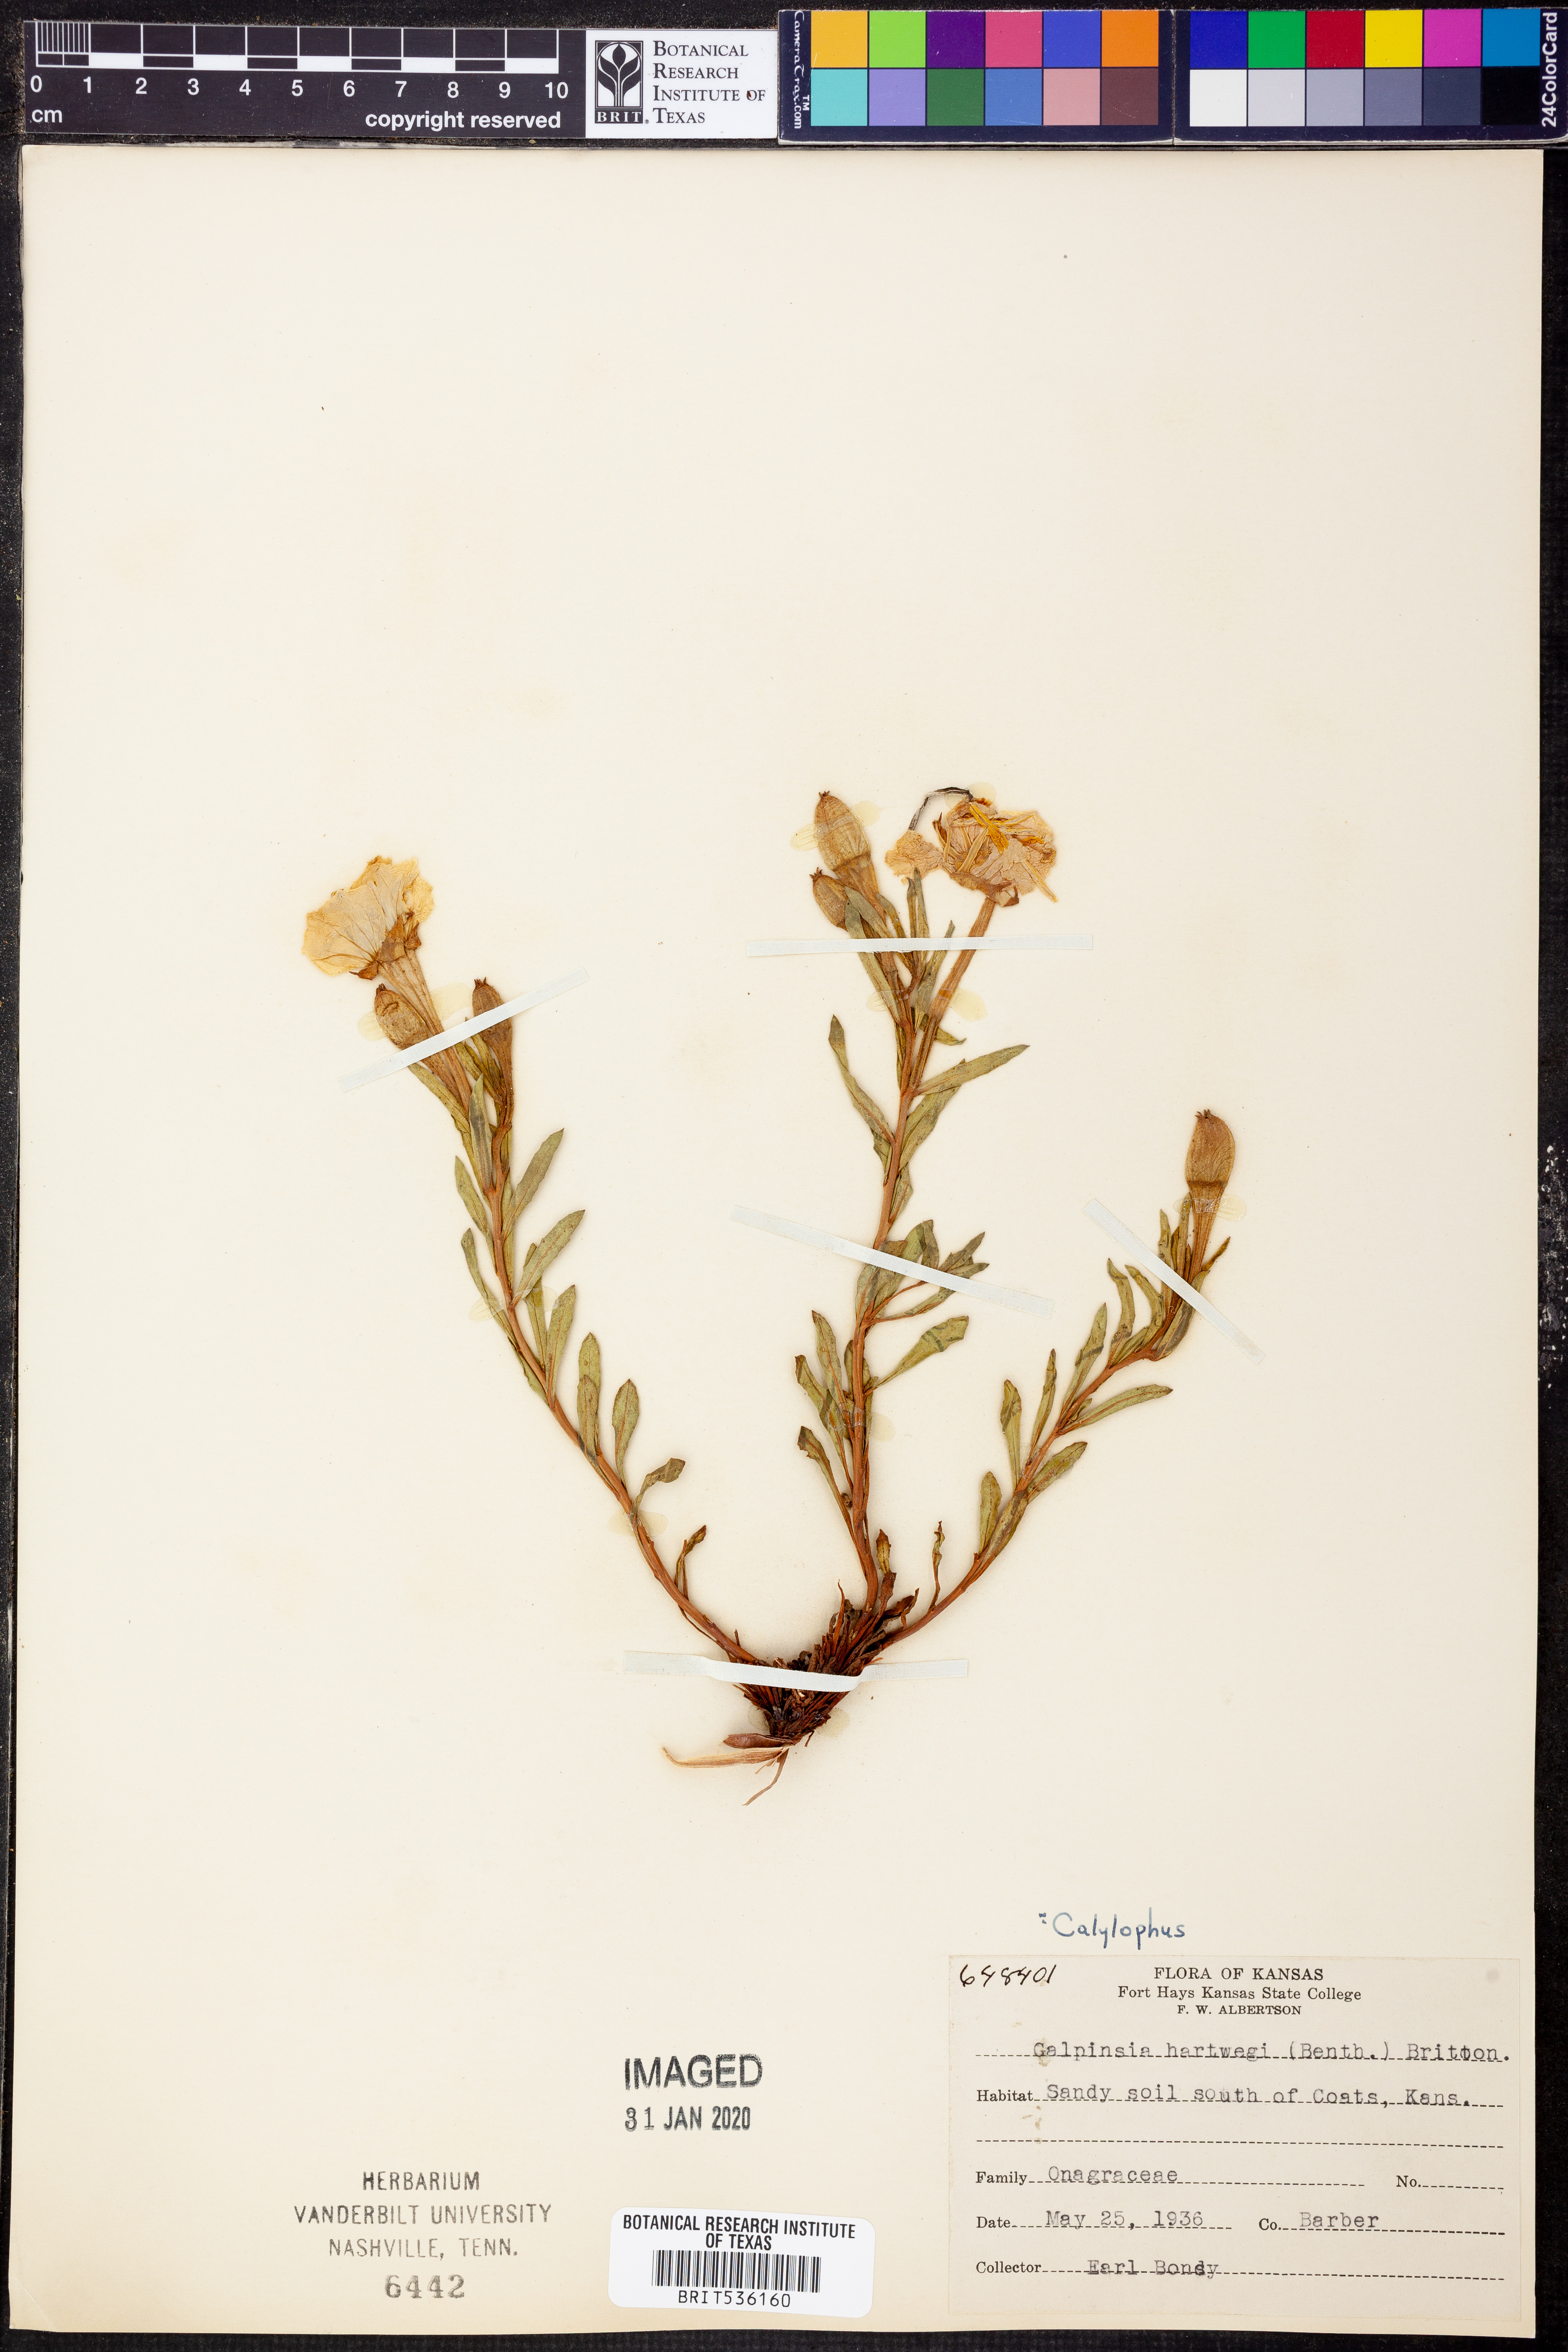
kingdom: Plantae
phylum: Tracheophyta
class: Magnoliopsida
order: Myrtales
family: Onagraceae
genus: Oenothera
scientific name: Oenothera hartwegii
